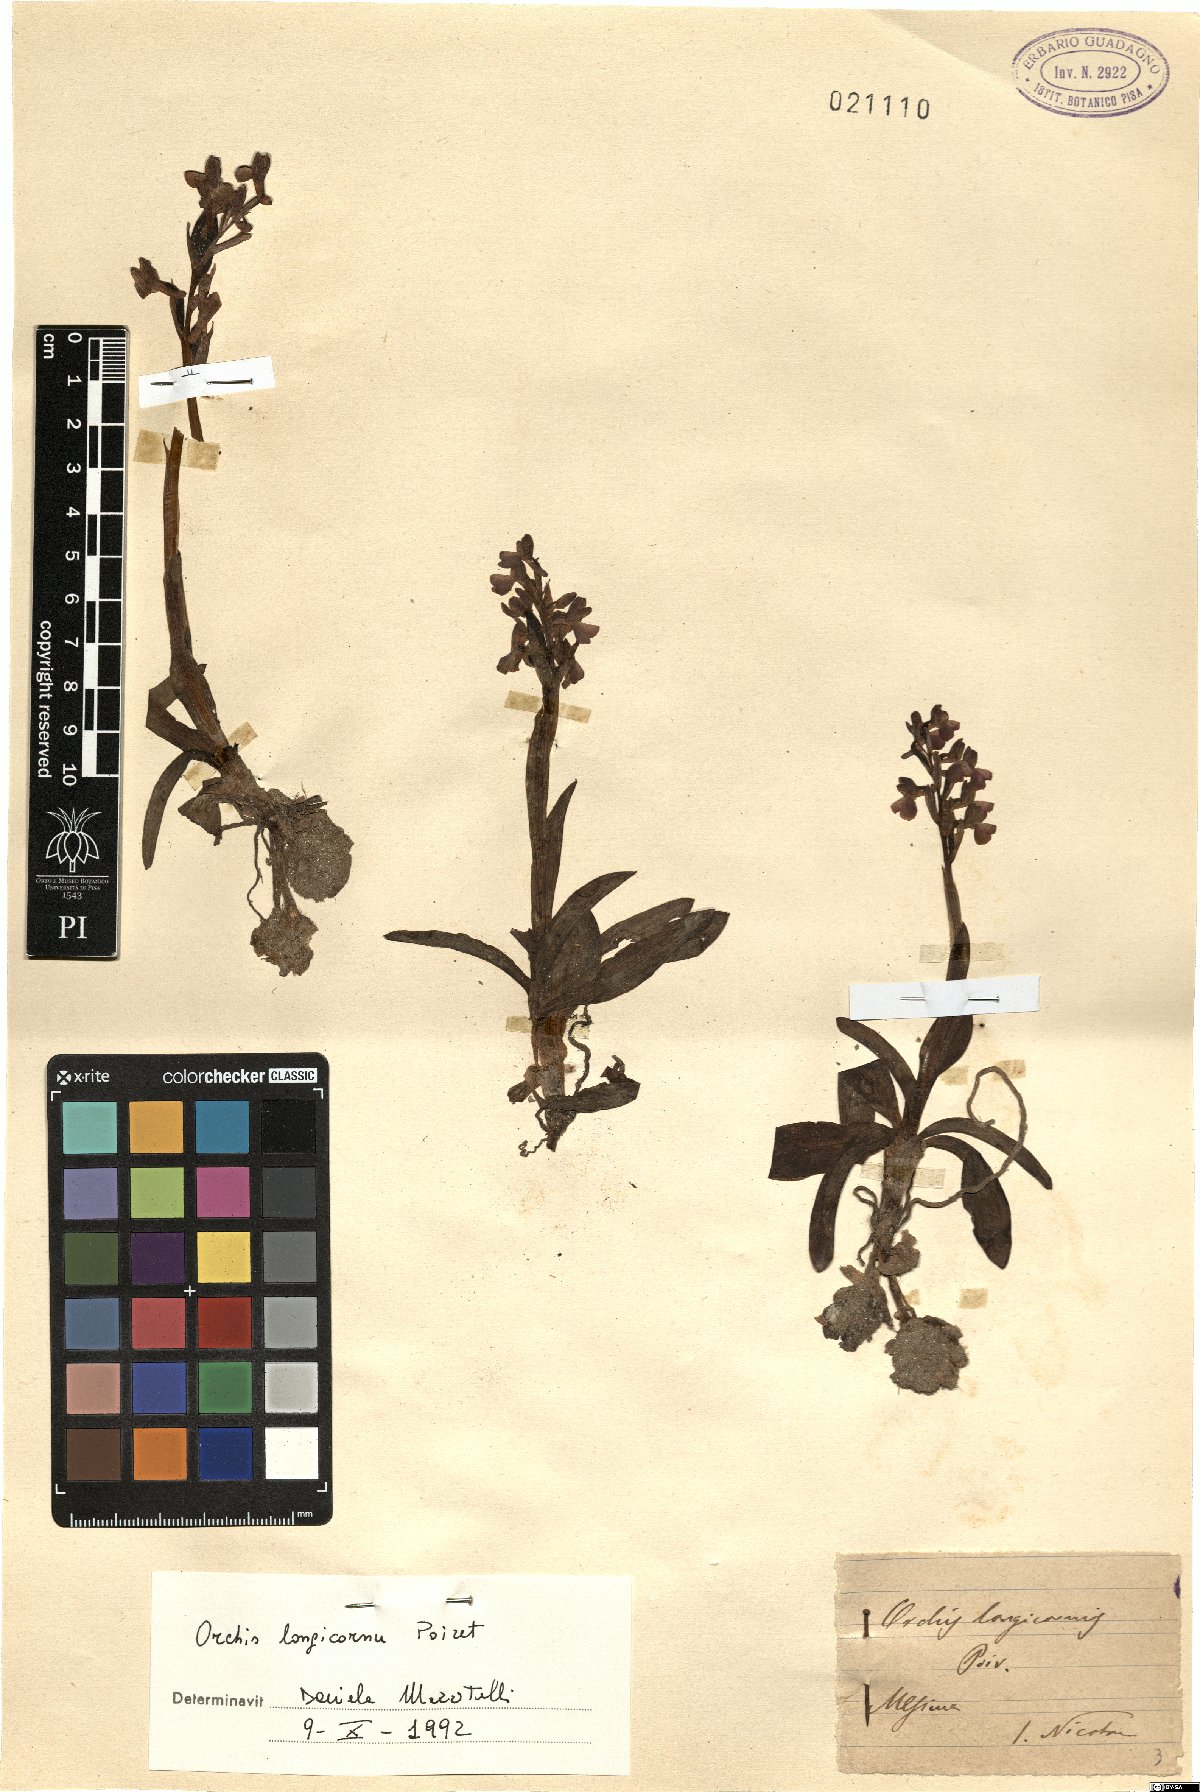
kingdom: Plantae
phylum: Tracheophyta
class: Liliopsida
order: Asparagales
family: Orchidaceae
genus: Anacamptis
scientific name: Anacamptis morio
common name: Green-winged orchid
